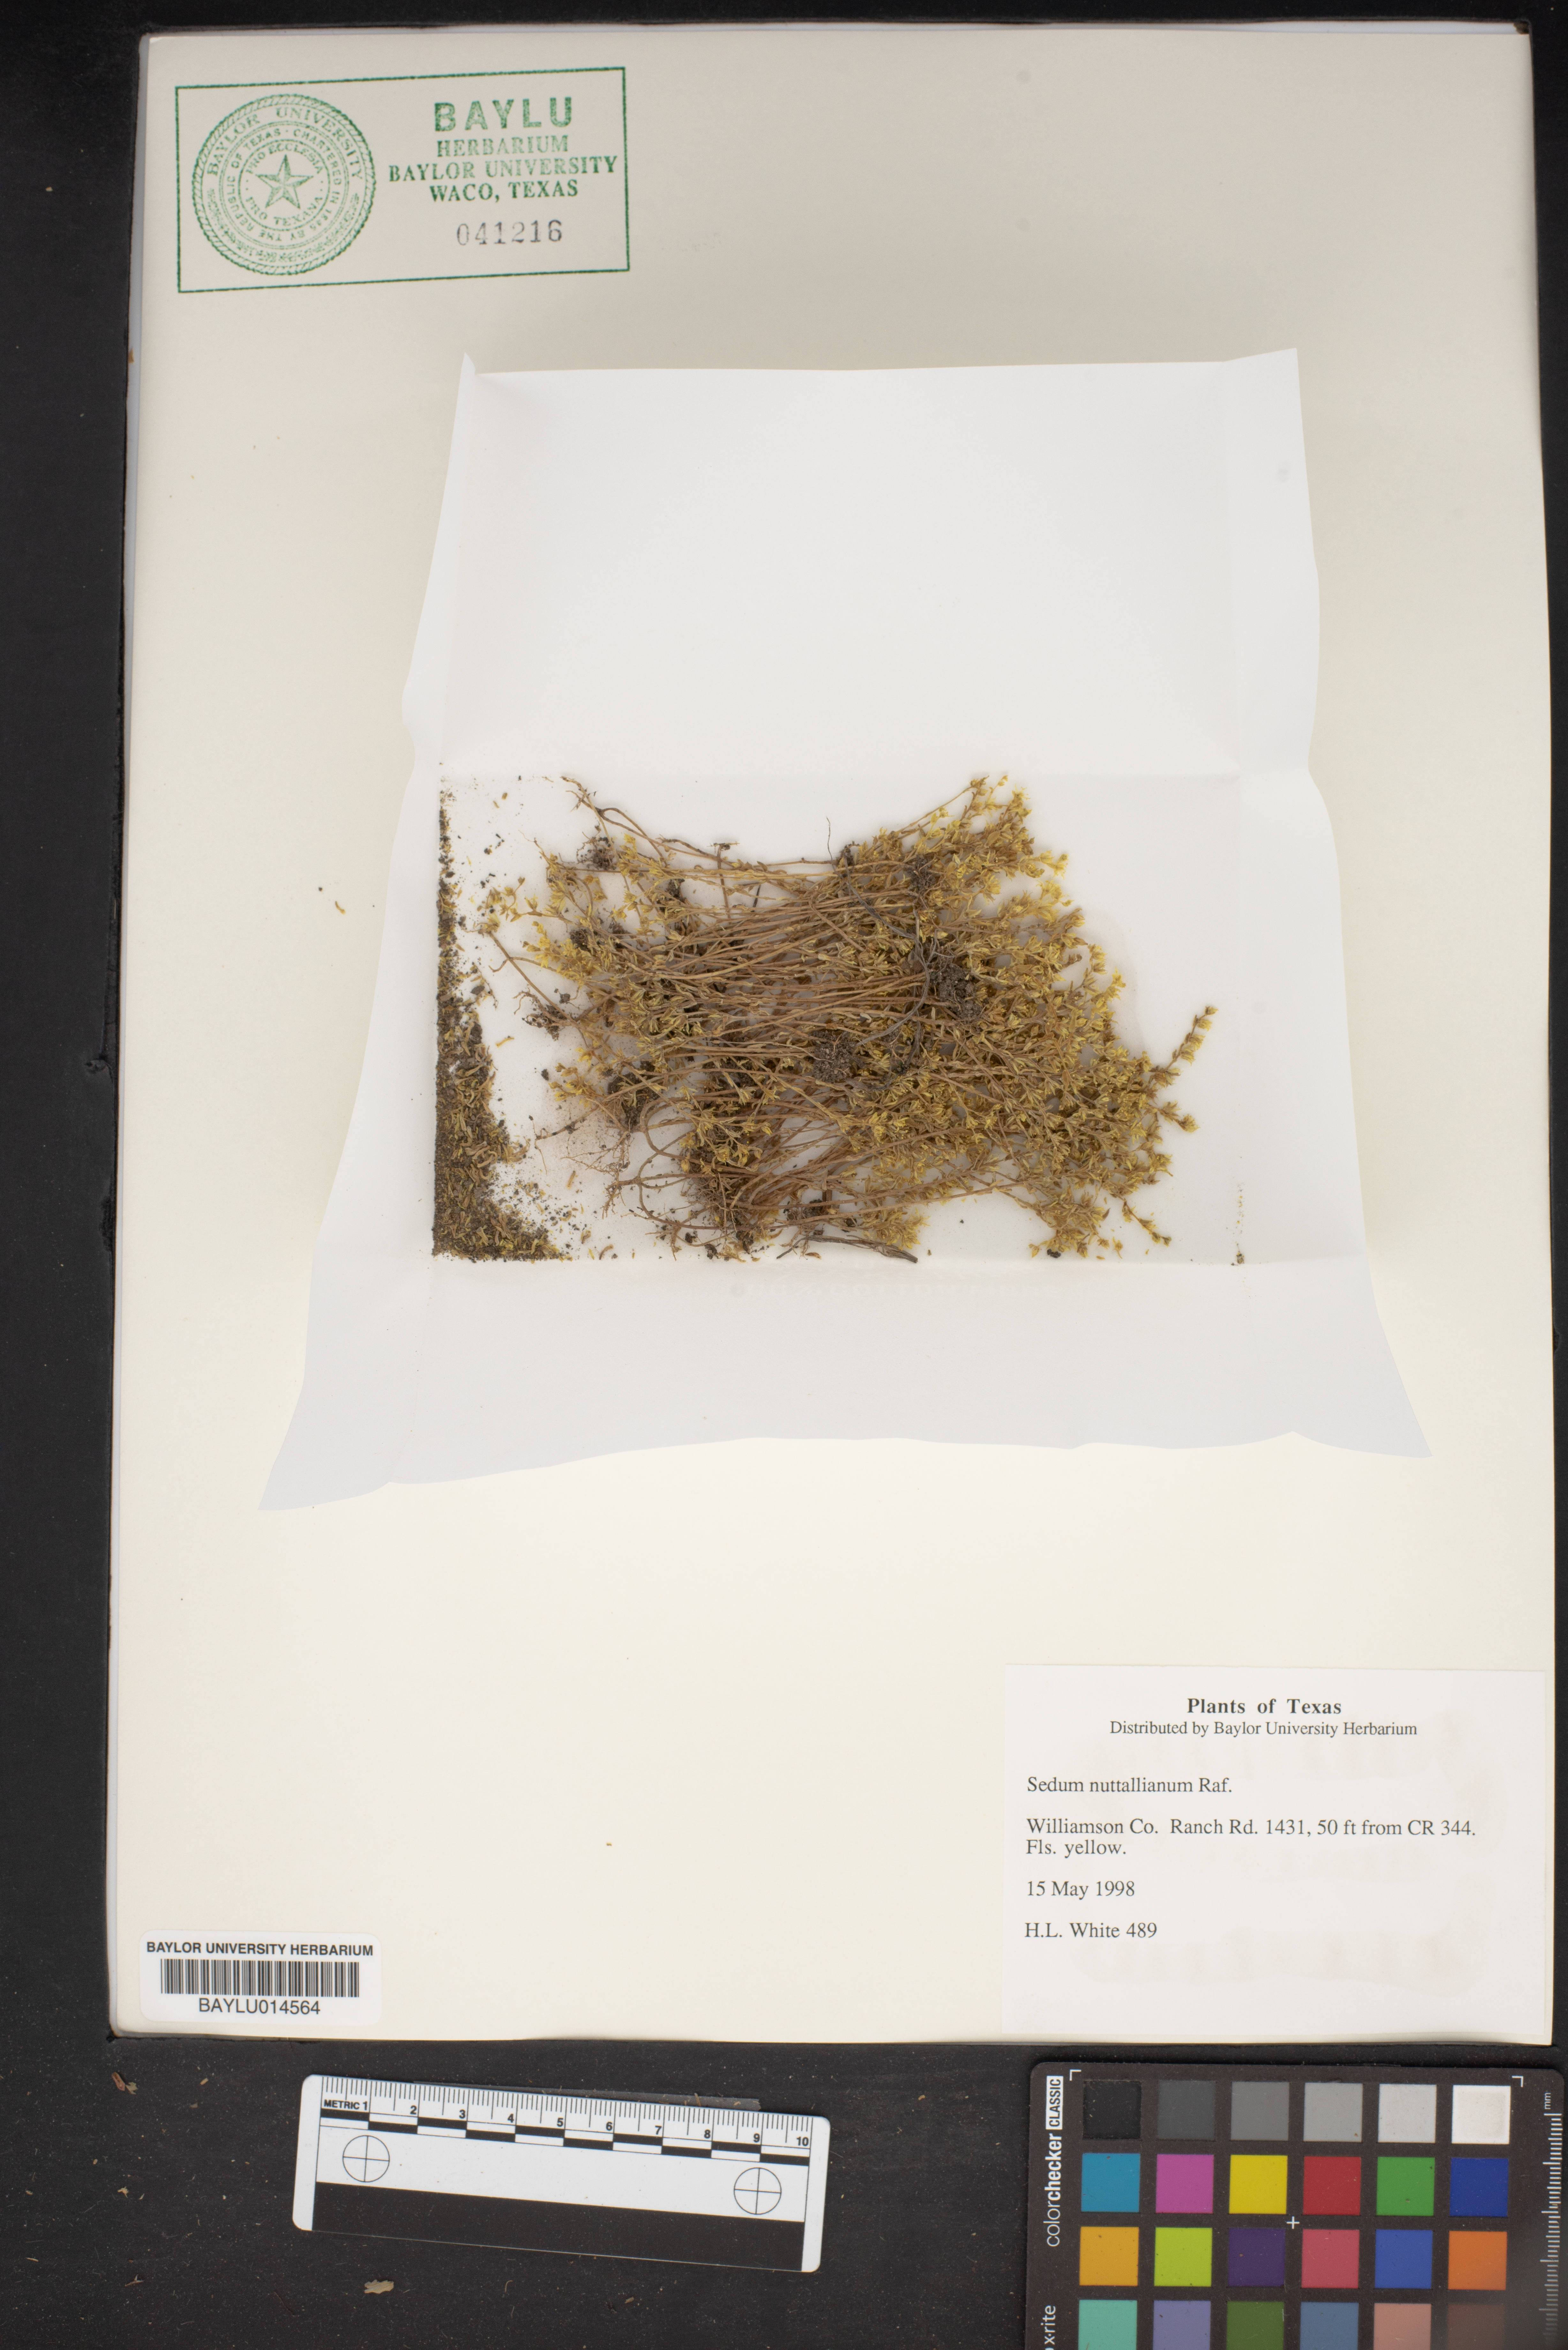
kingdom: Plantae
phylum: Tracheophyta
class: Magnoliopsida
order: Saxifragales
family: Crassulaceae
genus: Sedum
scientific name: Sedum nuttallii
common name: Yellow stonecrop
